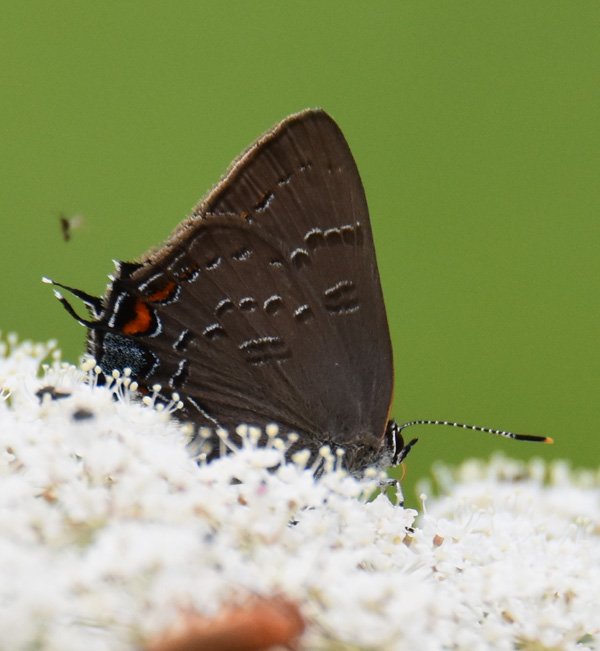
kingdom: Animalia
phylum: Arthropoda
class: Insecta
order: Lepidoptera
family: Lycaenidae
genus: Satyrium
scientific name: Satyrium calanus
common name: Banded Hairstreak
